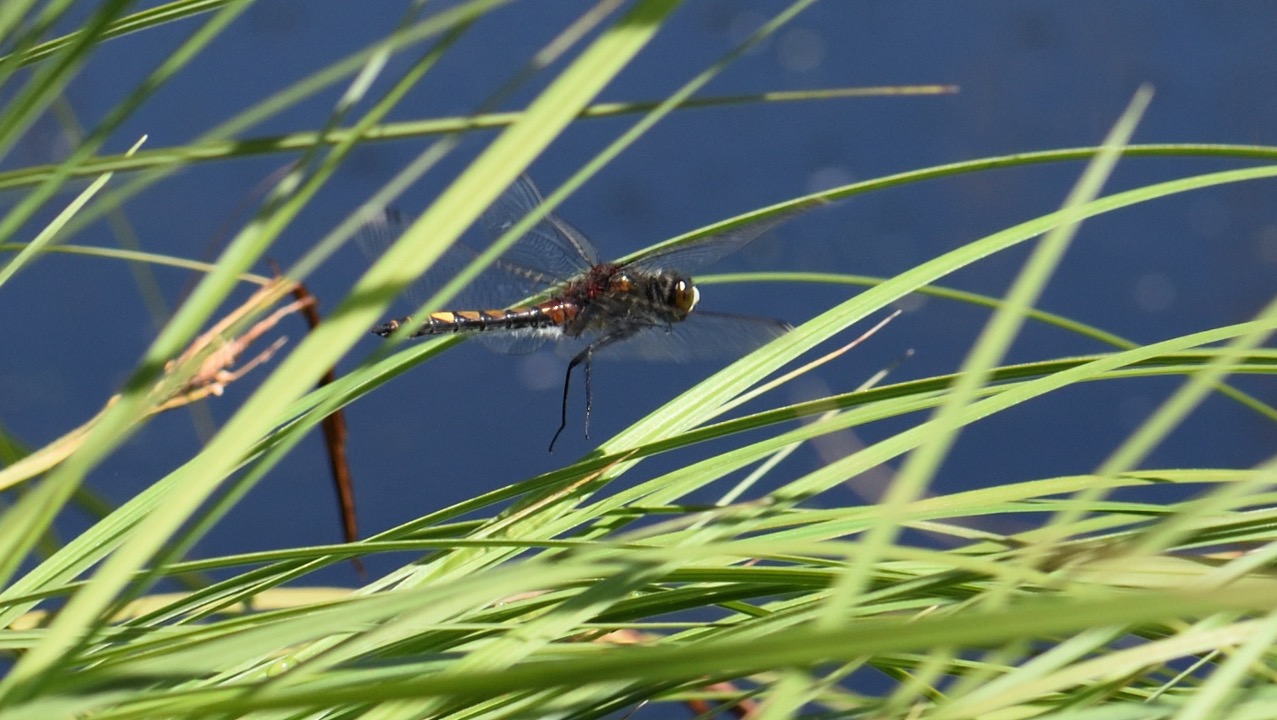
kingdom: Animalia
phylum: Arthropoda
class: Insecta
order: Odonata
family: Libellulidae
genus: Leucorrhinia
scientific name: Leucorrhinia pectoralis
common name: Stor kærguldsmed
